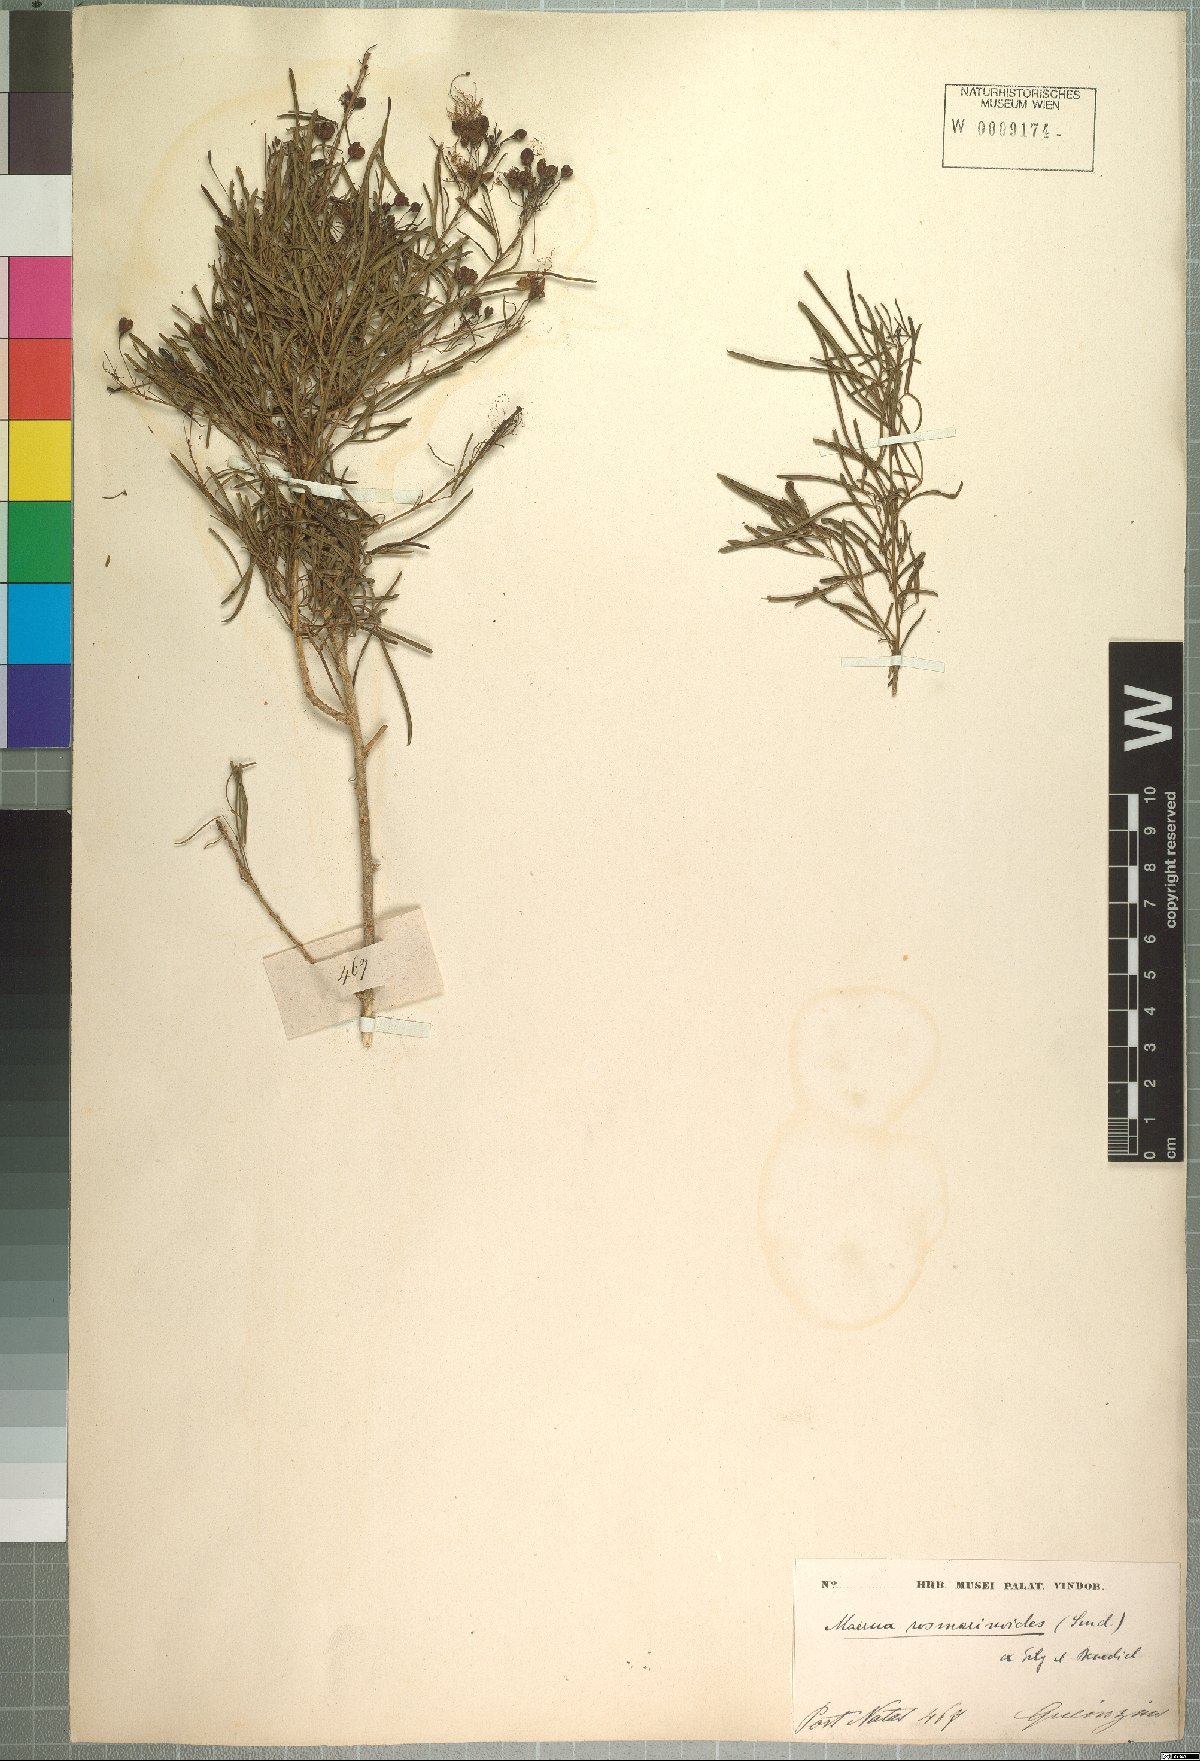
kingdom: Plantae
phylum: Tracheophyta
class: Magnoliopsida
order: Brassicales
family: Capparaceae
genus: Maerua
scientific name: Maerua rosmarinoides
